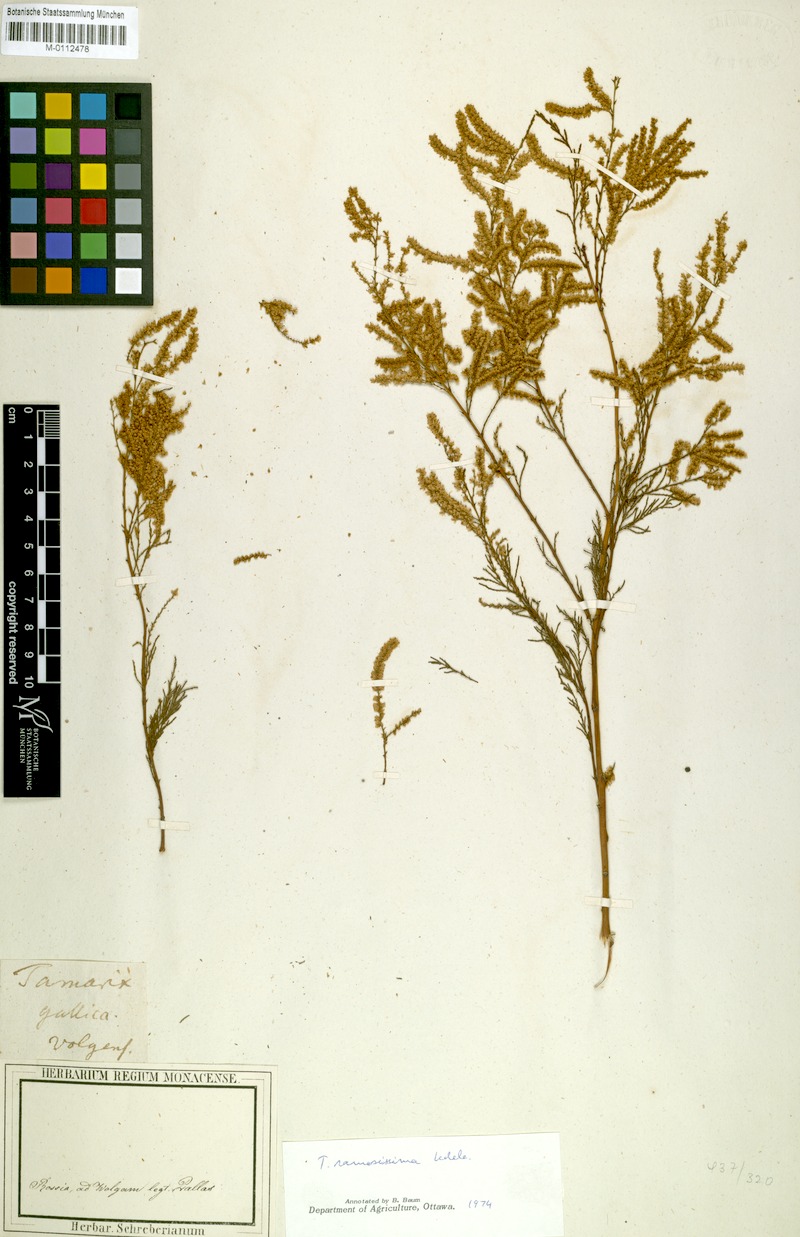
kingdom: Plantae
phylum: Tracheophyta
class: Magnoliopsida
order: Caryophyllales
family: Tamaricaceae
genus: Tamarix
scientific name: Tamarix ramosissima
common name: Pink tamarisk
